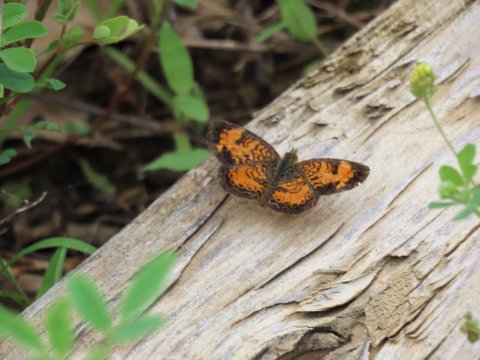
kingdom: Animalia
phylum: Arthropoda
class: Insecta
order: Lepidoptera
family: Nymphalidae
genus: Phyciodes
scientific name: Phyciodes tharos
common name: Pearl Crescent
